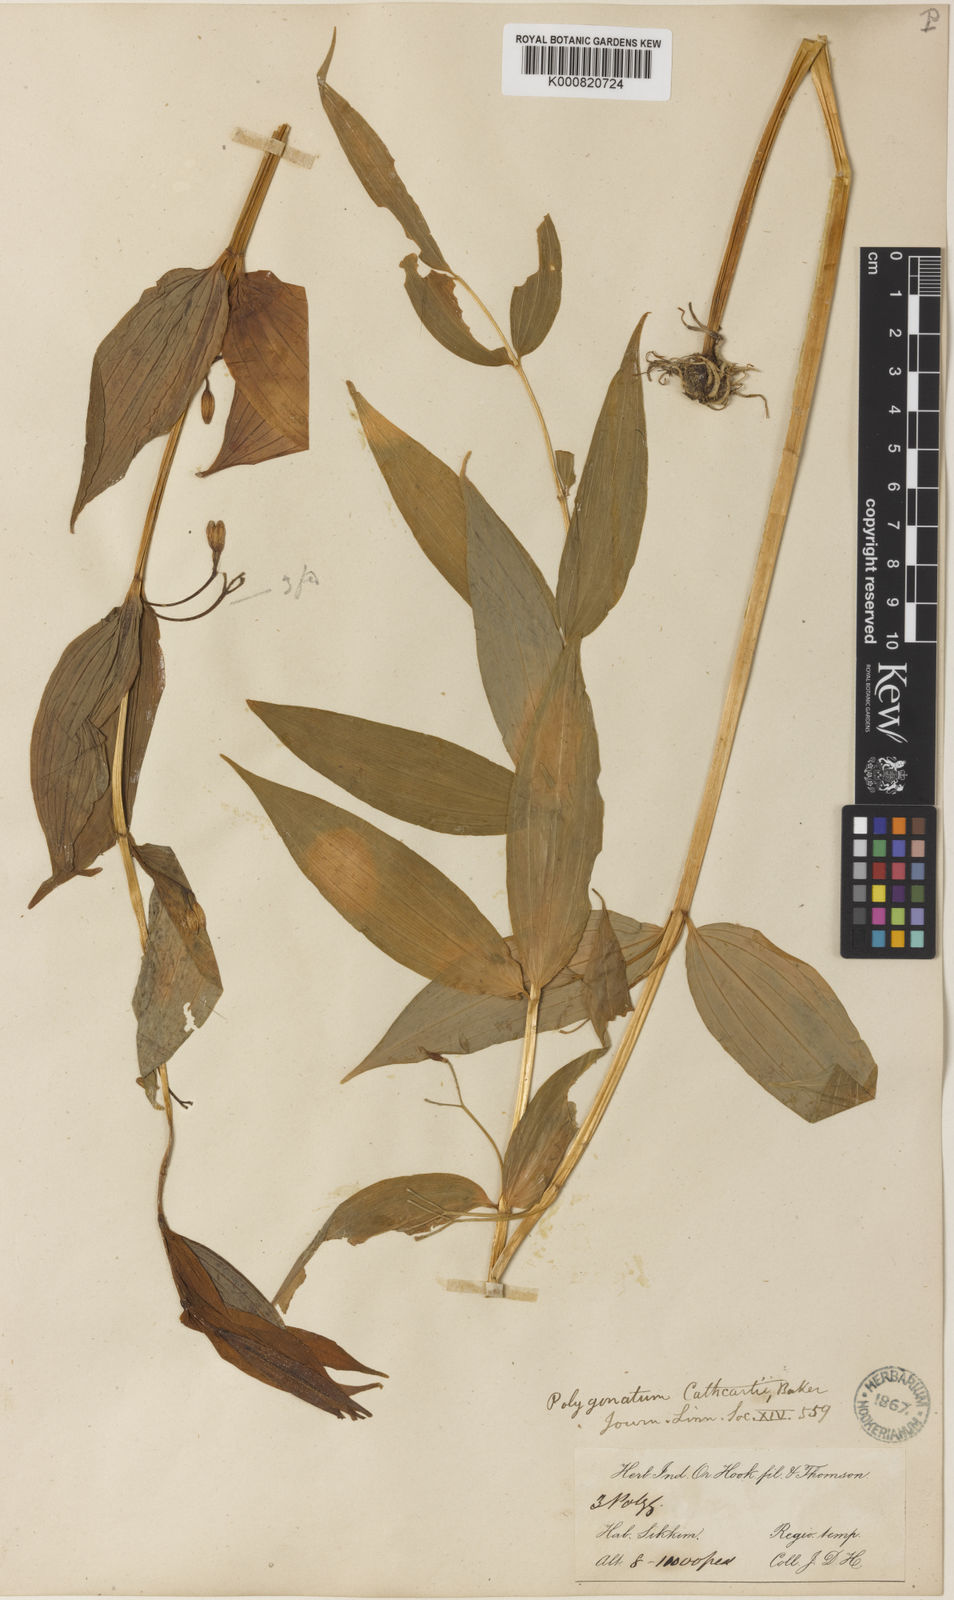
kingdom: Plantae
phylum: Tracheophyta
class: Liliopsida
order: Asparagales
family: Asparagaceae
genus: Polygonatum
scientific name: Polygonatum cathcartii
